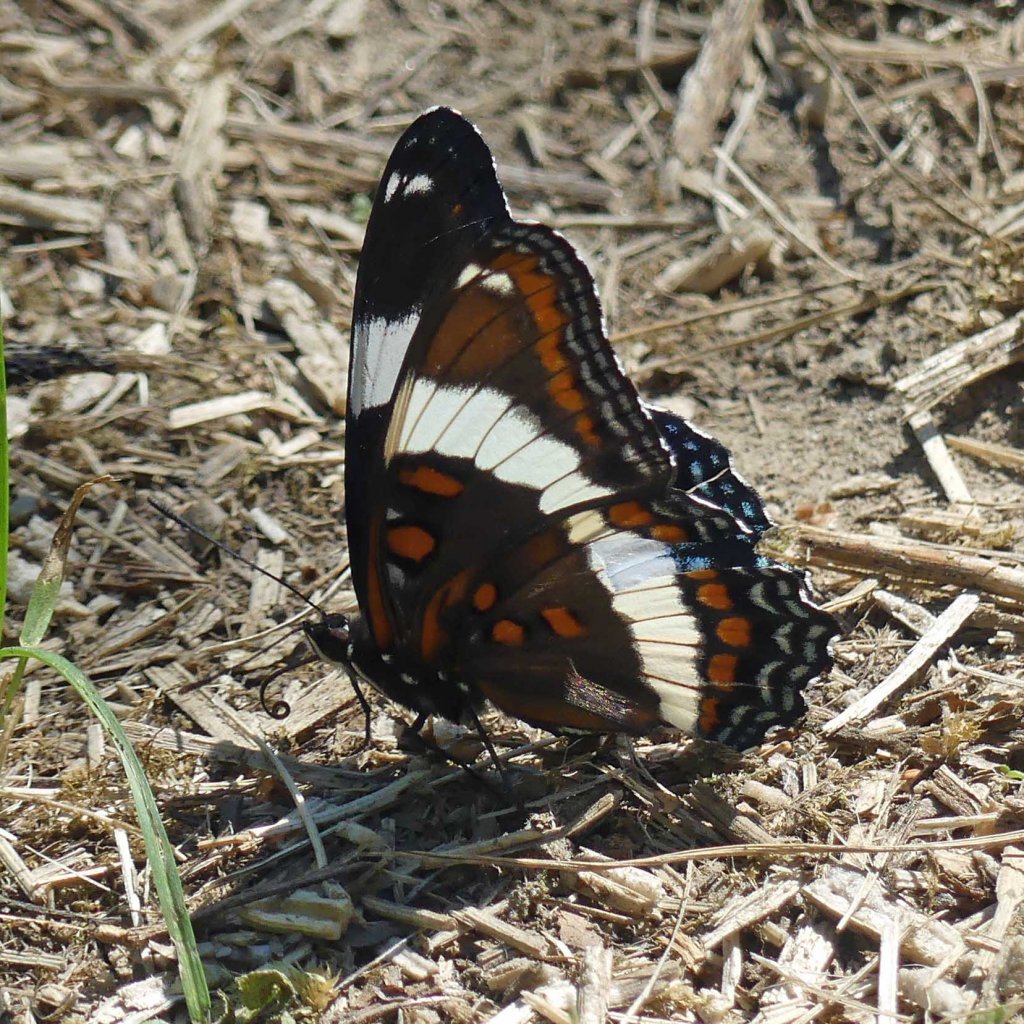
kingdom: Animalia
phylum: Arthropoda
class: Insecta
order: Lepidoptera
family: Nymphalidae
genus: Limenitis
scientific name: Limenitis arthemis
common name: Red-spotted Admiral
